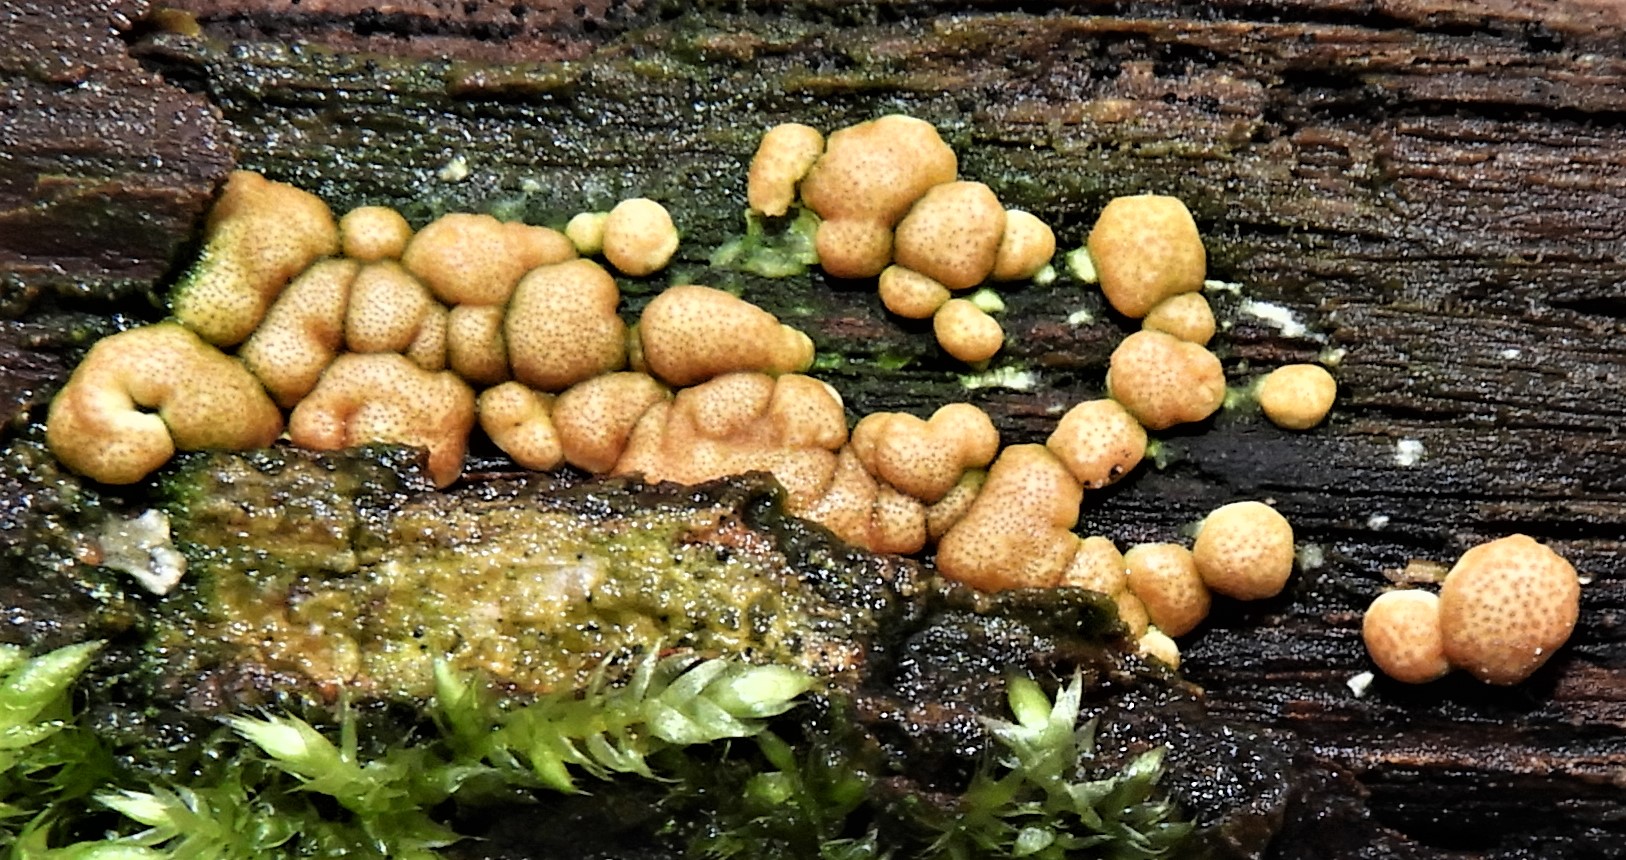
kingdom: Fungi
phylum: Ascomycota
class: Sordariomycetes
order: Hypocreales
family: Hypocreaceae
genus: Trichoderma
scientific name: Trichoderma europaeum
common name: rosabrun kødkerne
